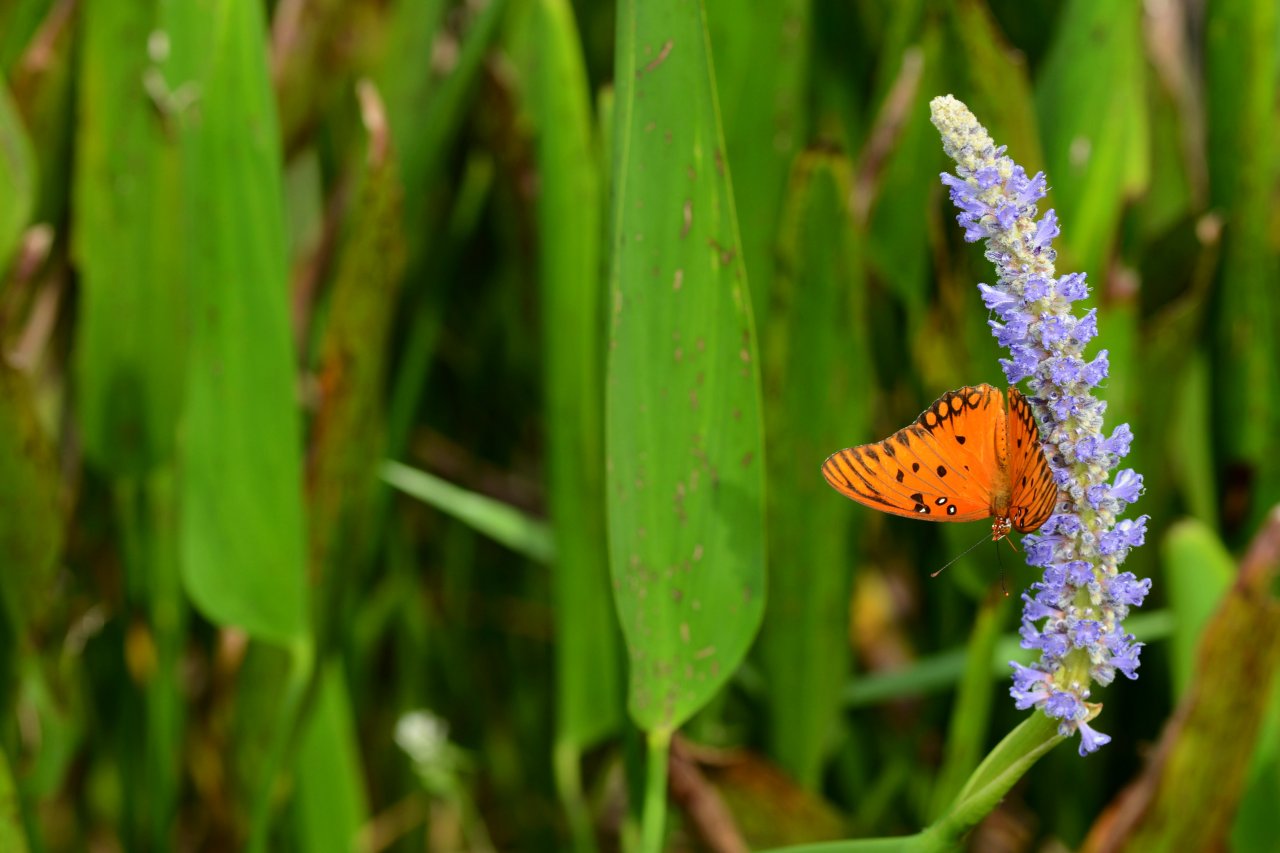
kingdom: Animalia
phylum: Arthropoda
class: Insecta
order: Lepidoptera
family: Nymphalidae
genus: Dione
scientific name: Dione vanillae
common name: Gulf Fritillary
